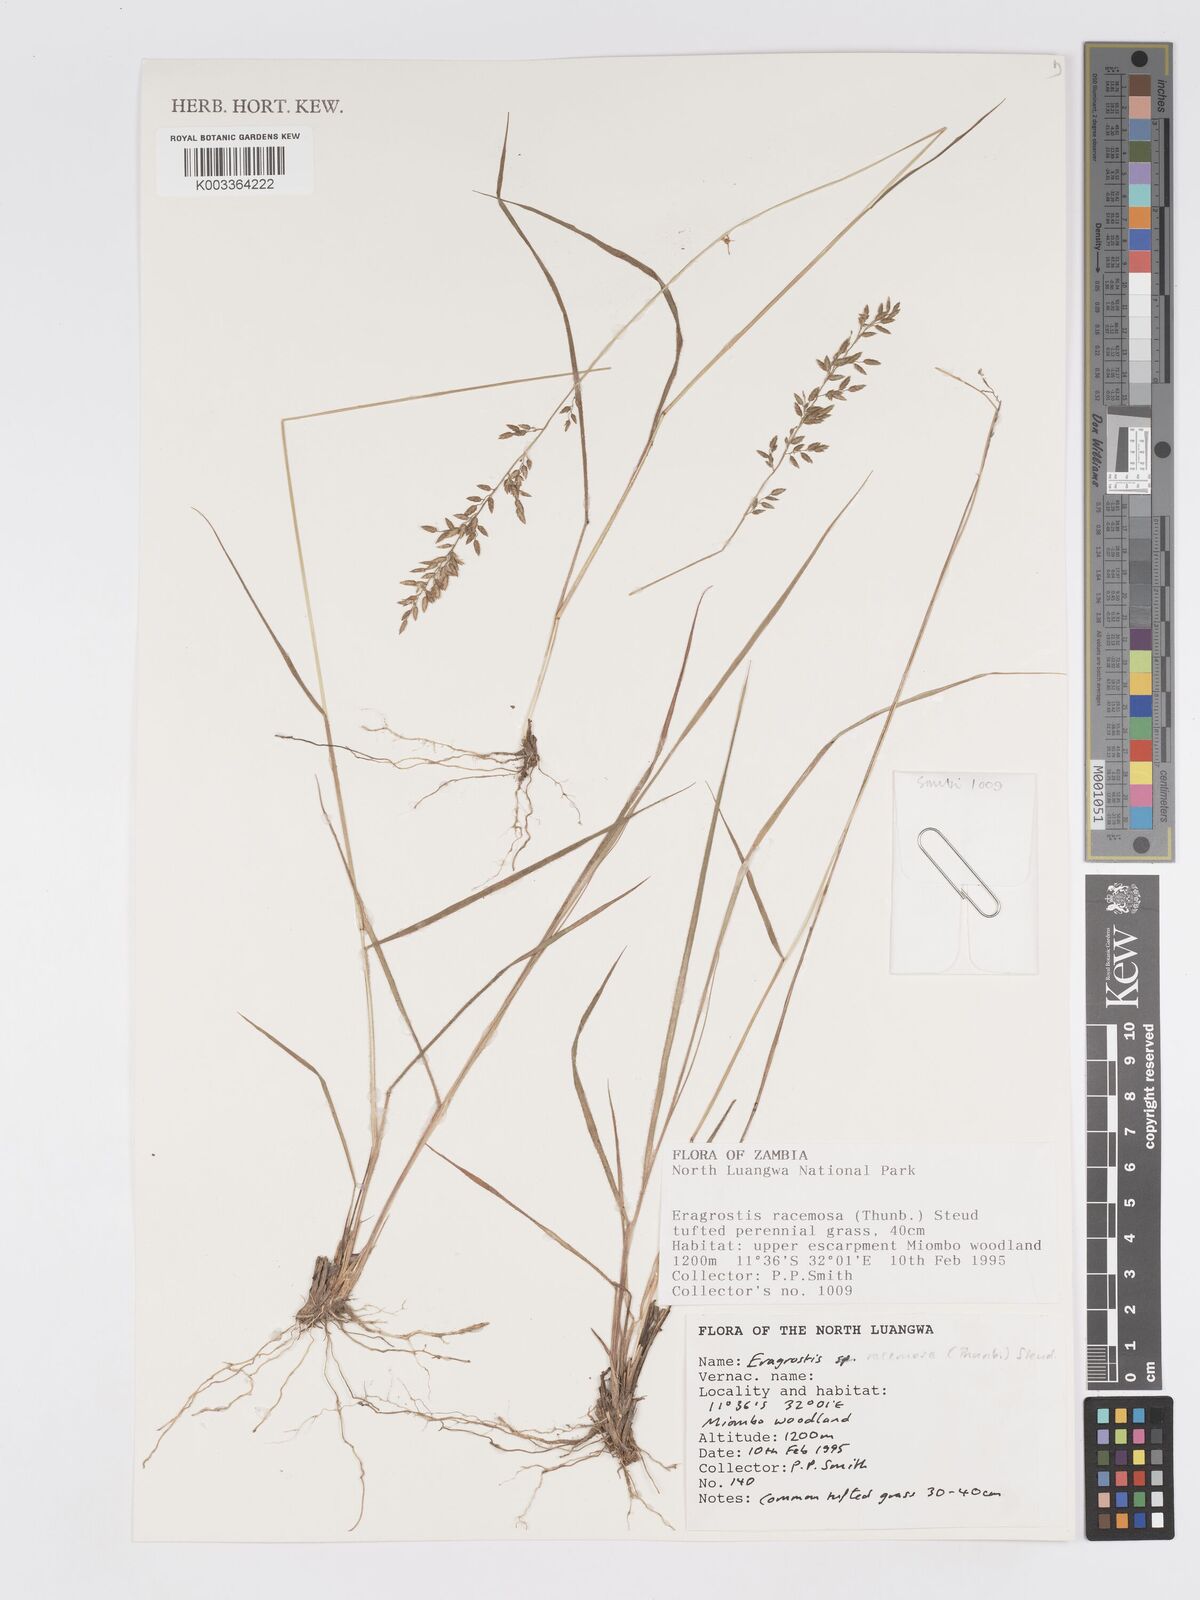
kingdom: Plantae
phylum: Tracheophyta
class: Liliopsida
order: Poales
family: Poaceae
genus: Eragrostis
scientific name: Eragrostis racemosa
